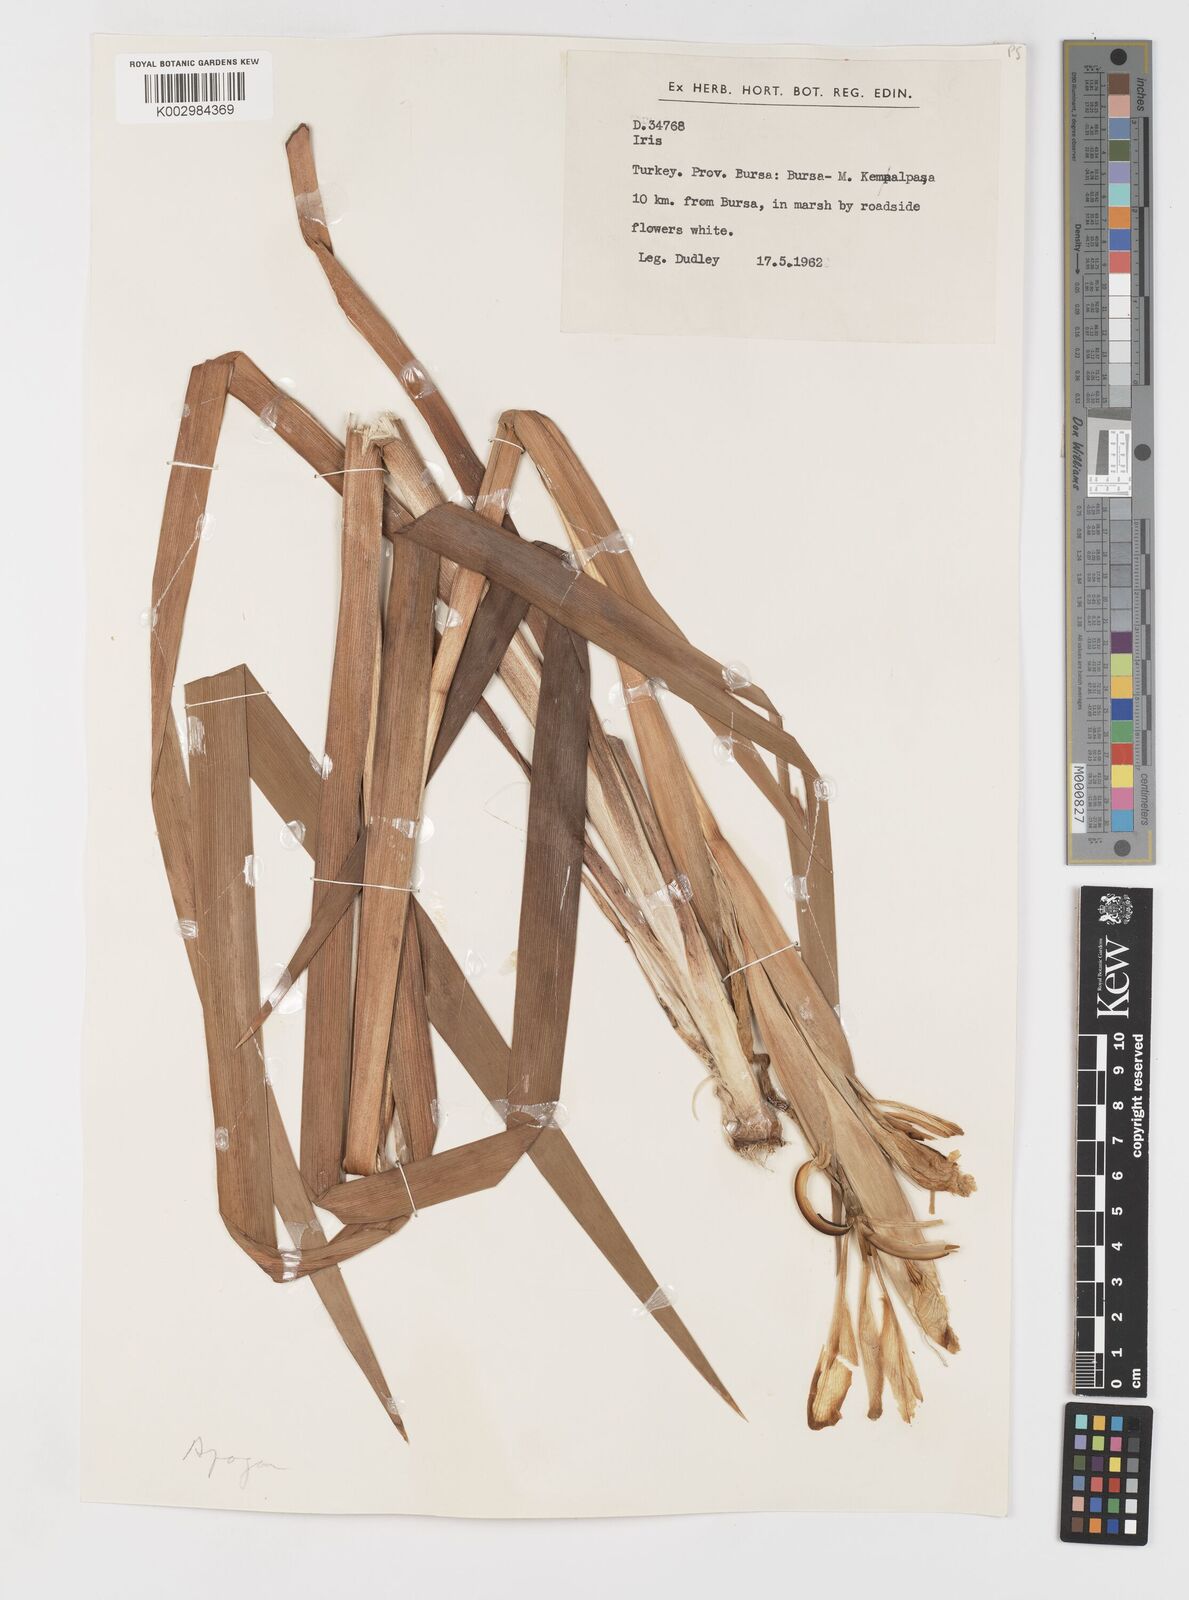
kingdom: Plantae
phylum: Tracheophyta
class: Liliopsida
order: Asparagales
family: Iridaceae
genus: Iris
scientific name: Iris orientalis
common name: Turkish iris
